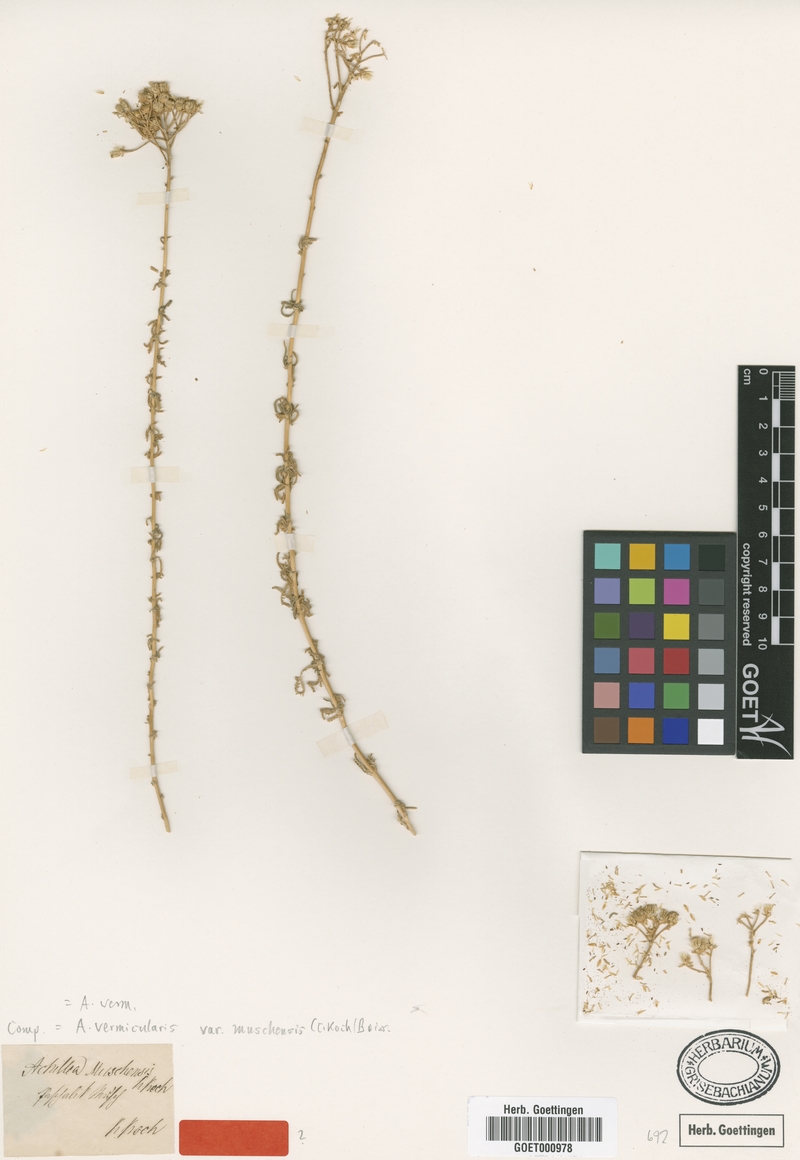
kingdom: Plantae
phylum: Tracheophyta
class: Magnoliopsida
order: Asterales
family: Asteraceae
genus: Achillea
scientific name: Achillea vermicularis
